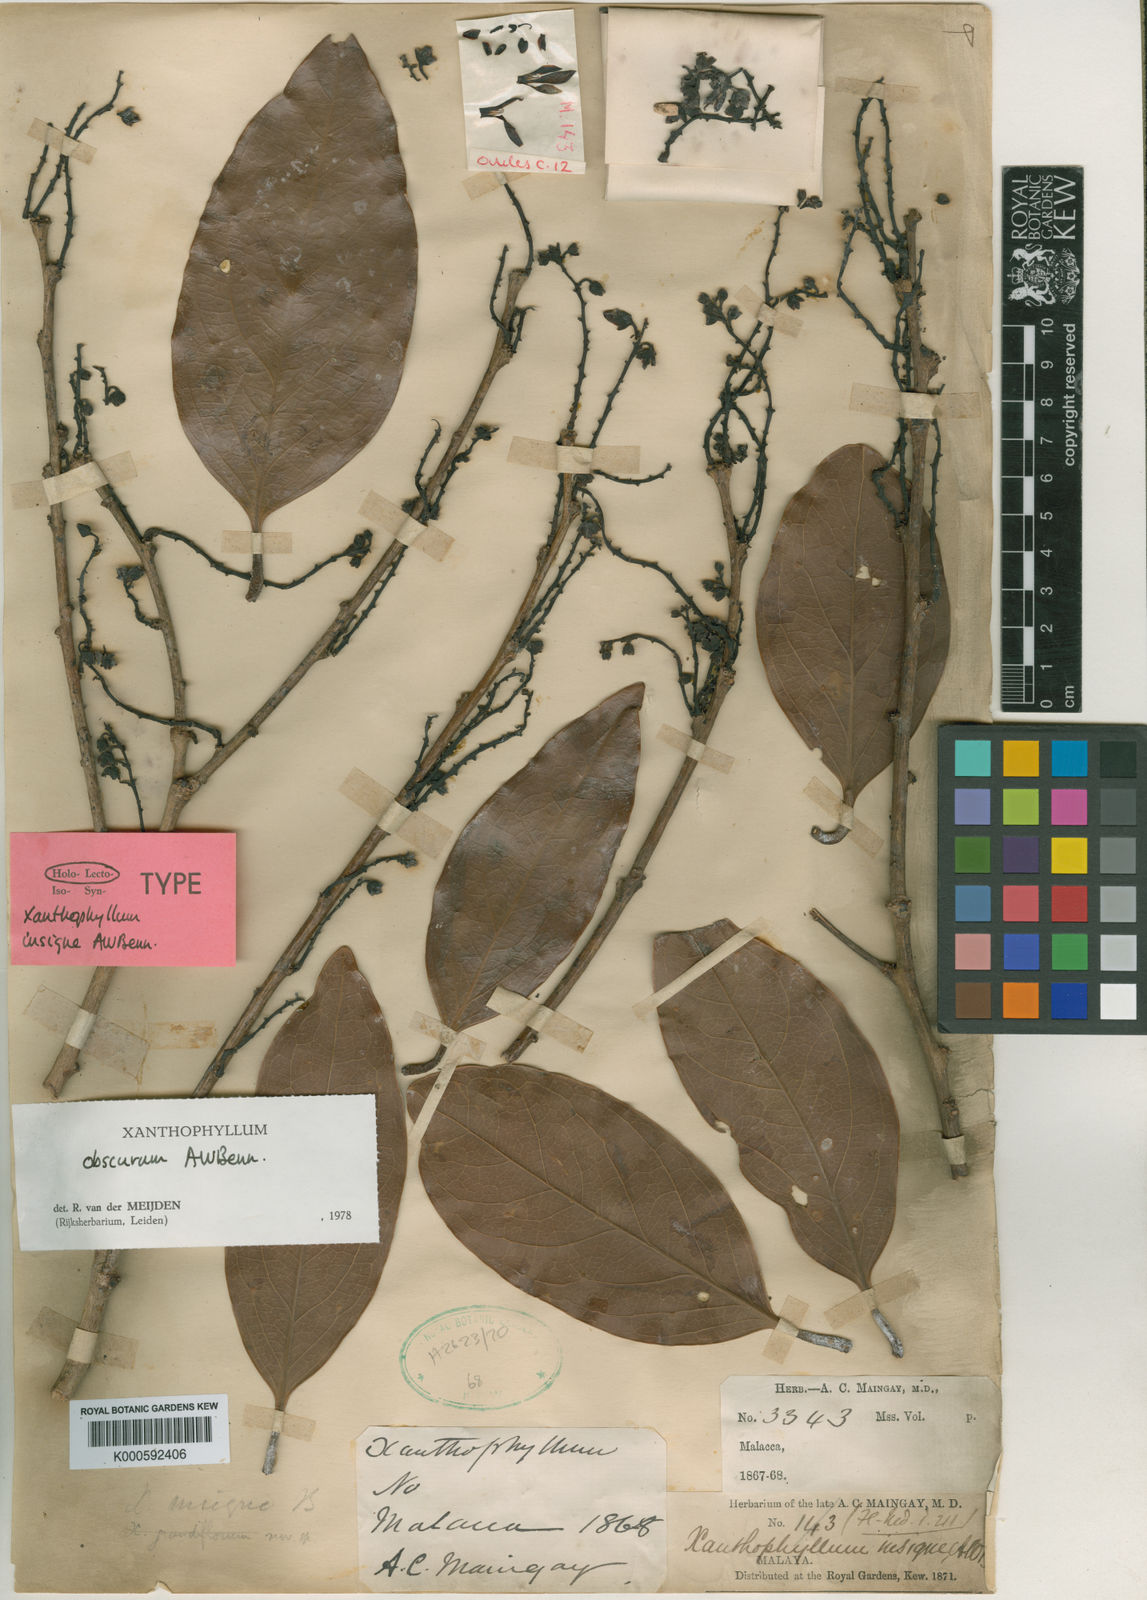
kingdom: Plantae
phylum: Tracheophyta
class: Magnoliopsida
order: Fabales
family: Polygalaceae
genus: Xanthophyllum
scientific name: Xanthophyllum obscurum
